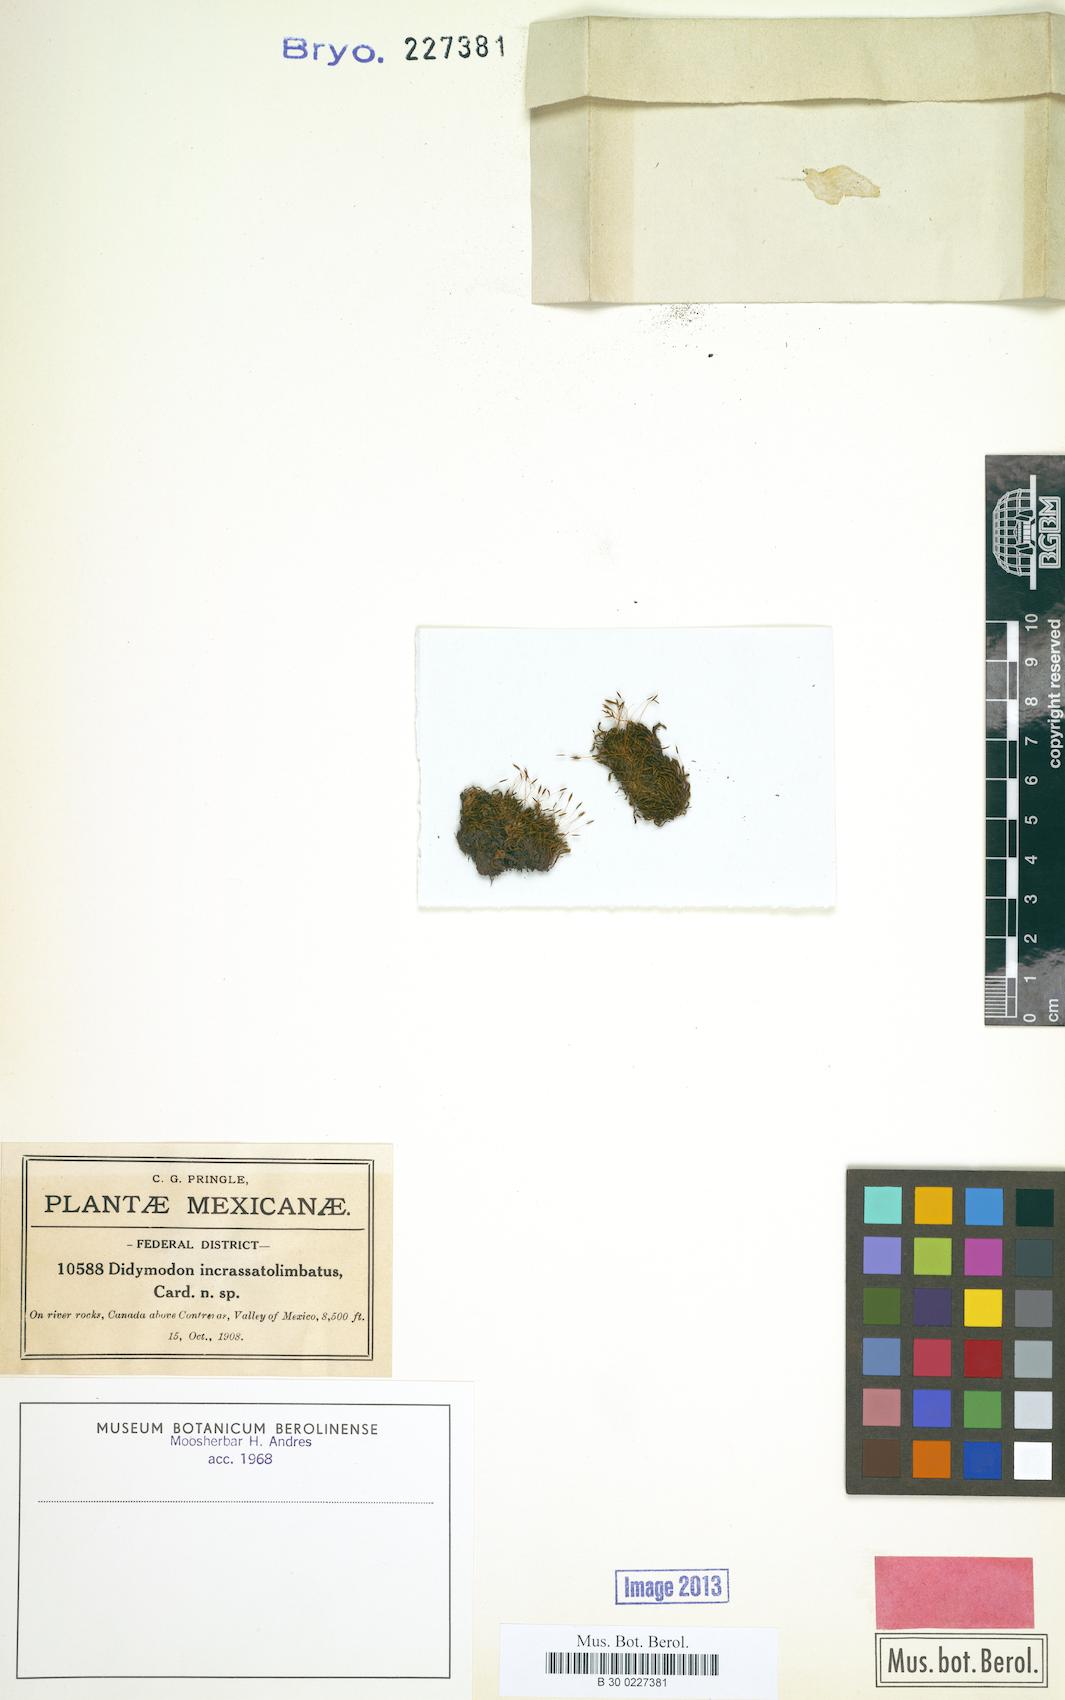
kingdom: Plantae
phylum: Bryophyta
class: Bryopsida
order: Pottiales
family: Pottiaceae
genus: Husnotiella
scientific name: Husnotiella incrassatolimbata
